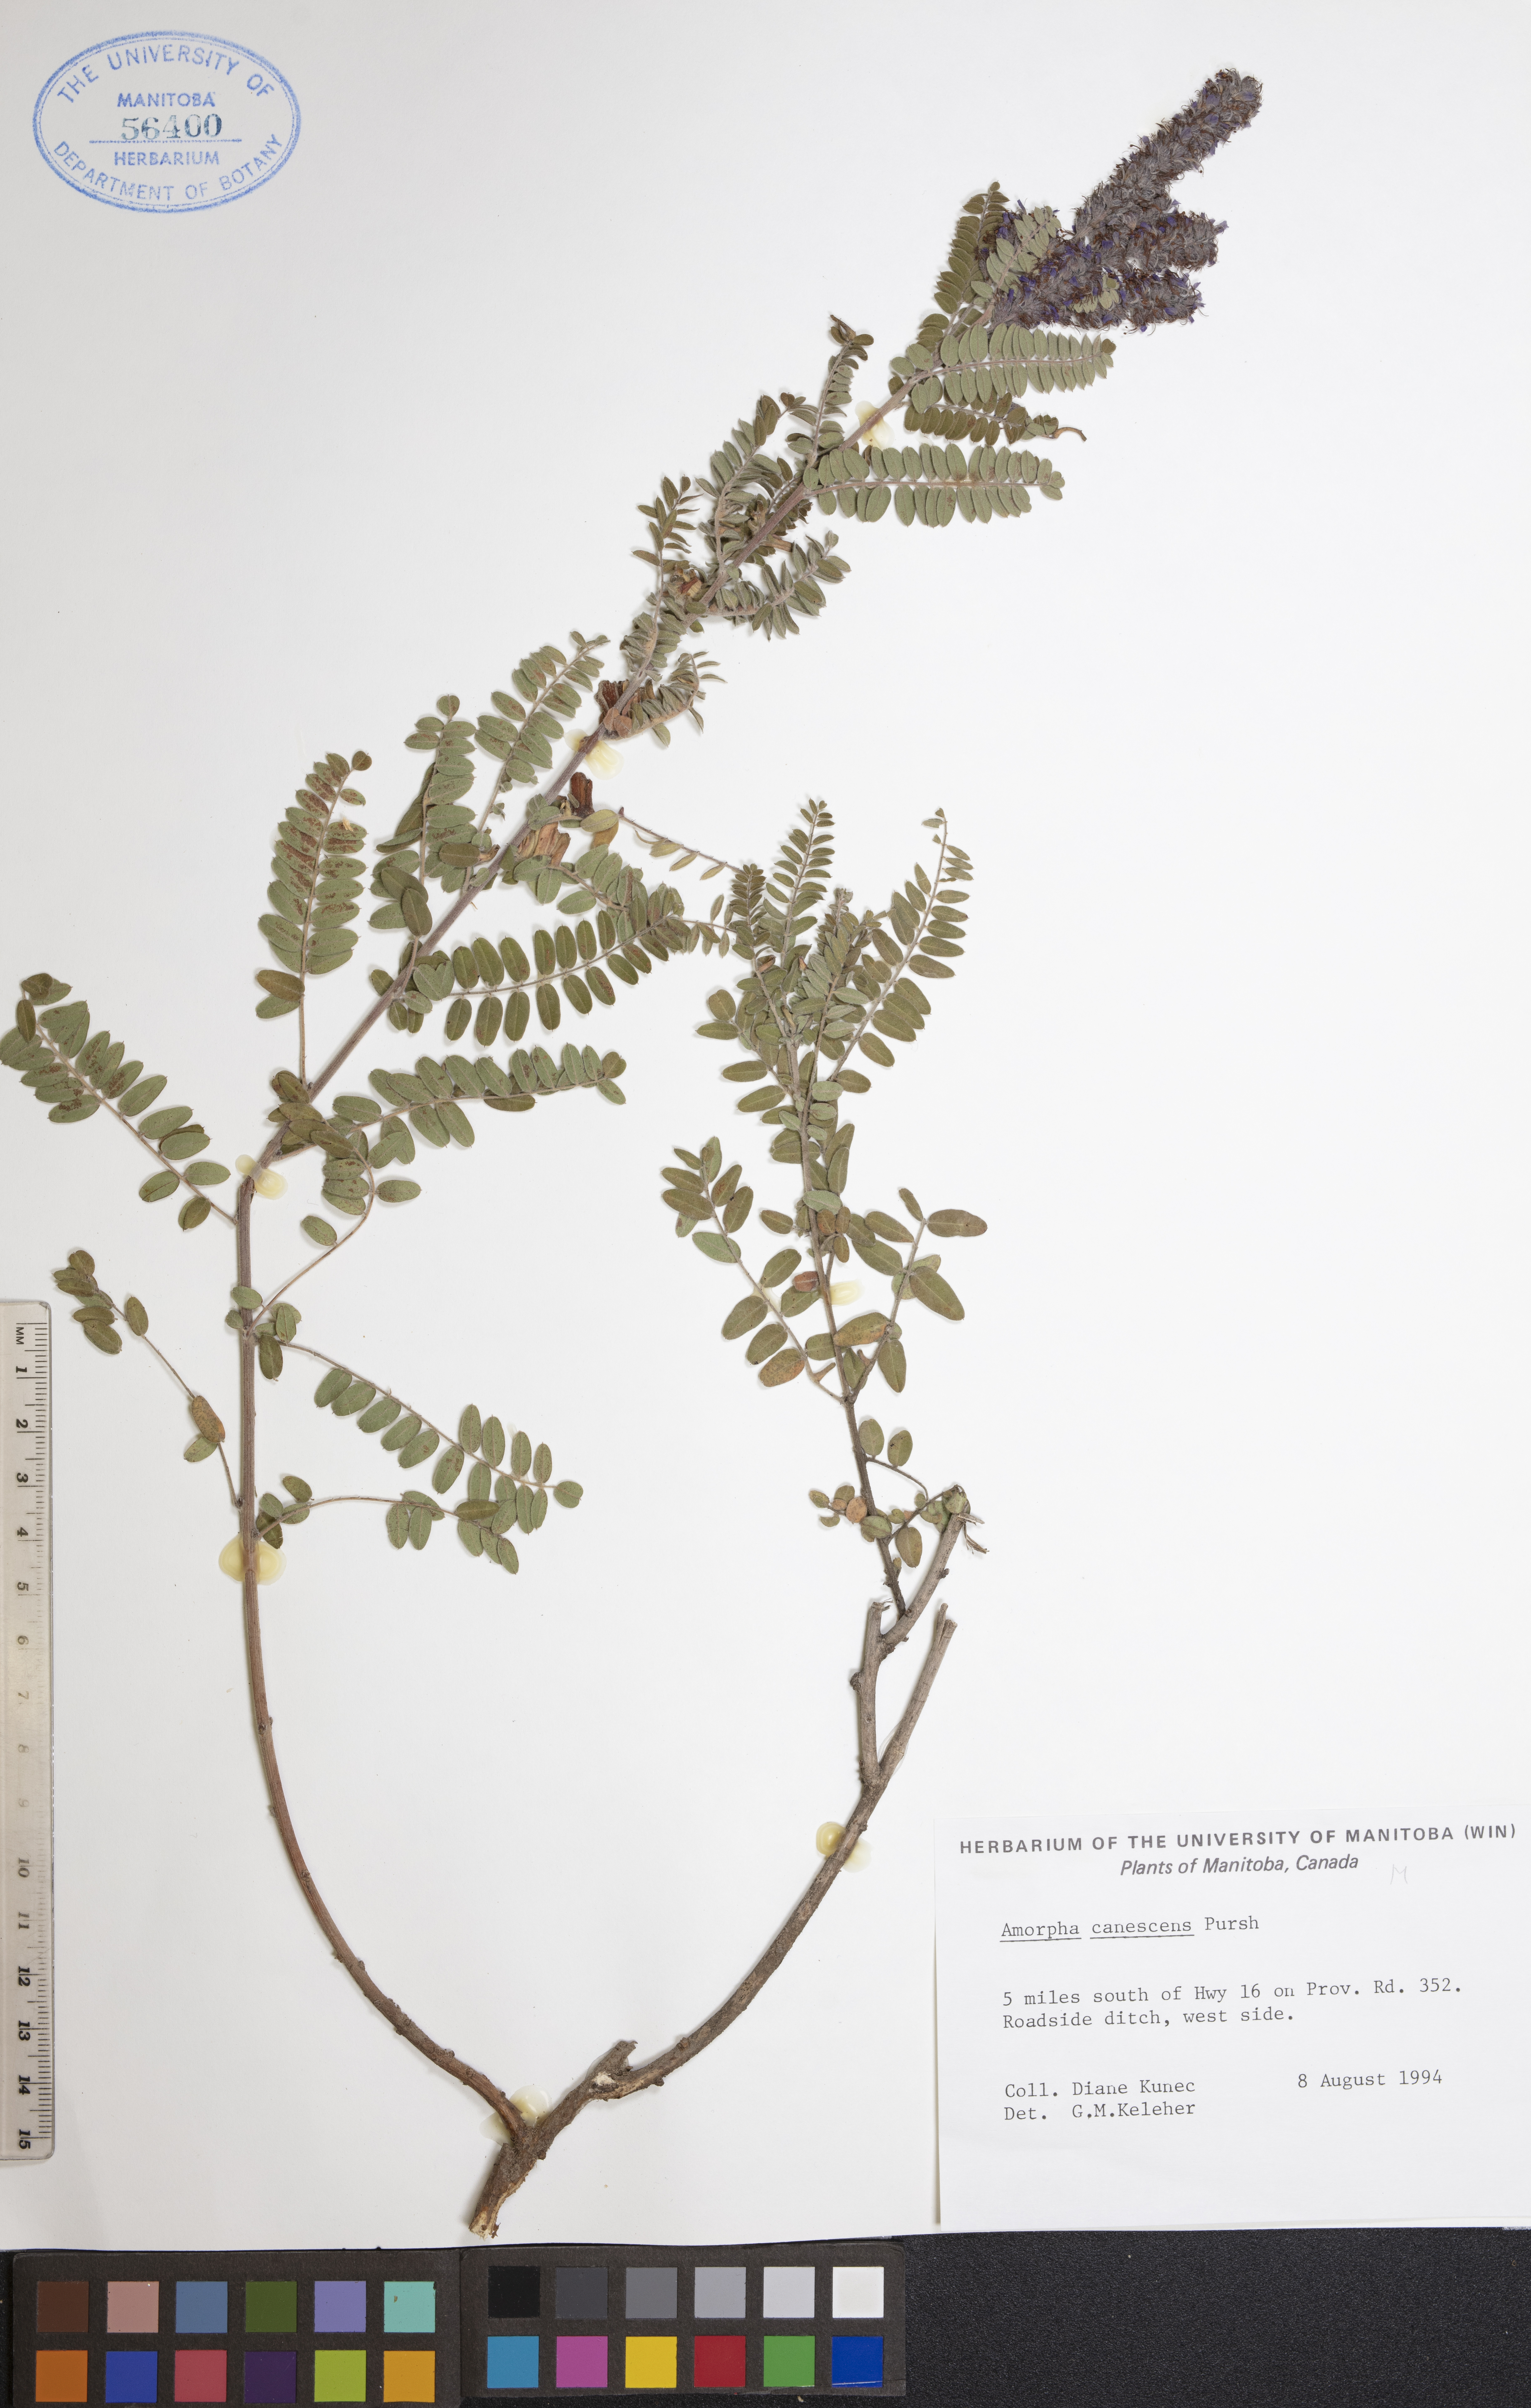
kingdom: Plantae
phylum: Tracheophyta
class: Magnoliopsida
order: Fabales
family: Fabaceae
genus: Amorpha
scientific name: Amorpha canescens
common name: Leadplant
